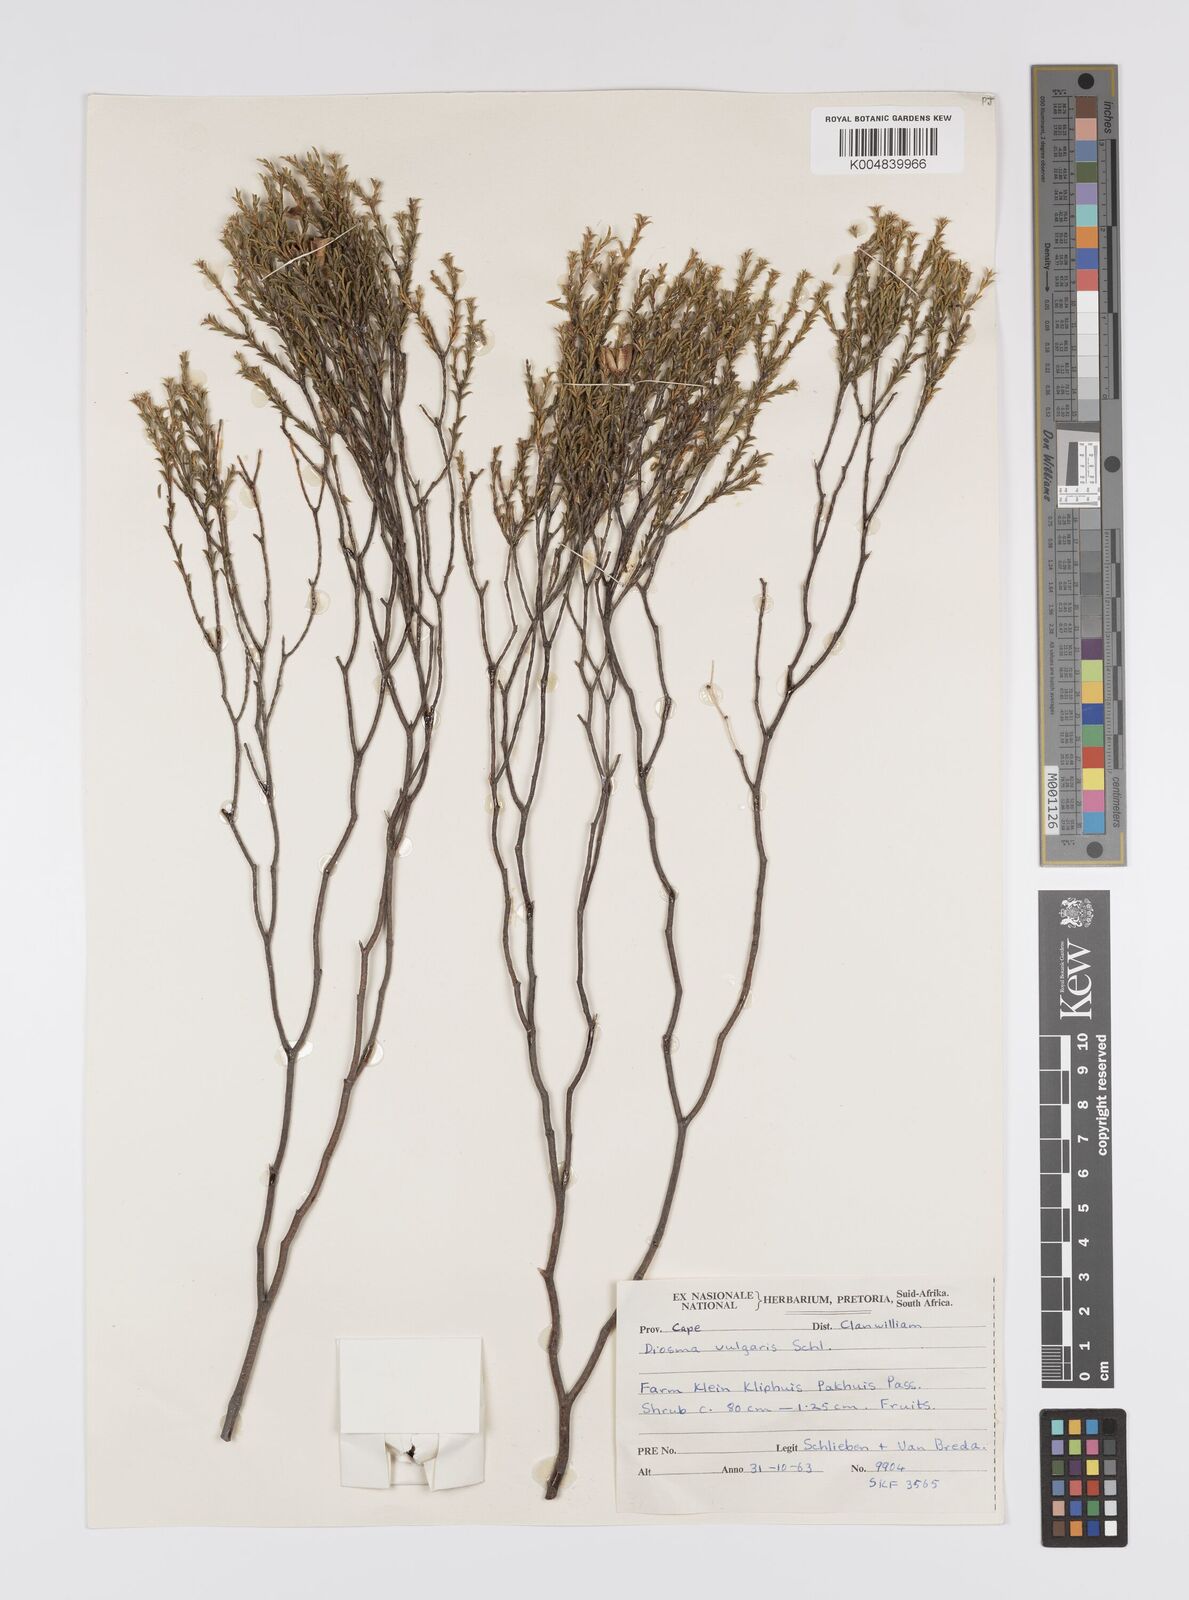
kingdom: Plantae
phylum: Tracheophyta
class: Magnoliopsida
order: Sapindales
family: Rutaceae
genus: Diosma
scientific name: Diosma acmaeophylla
